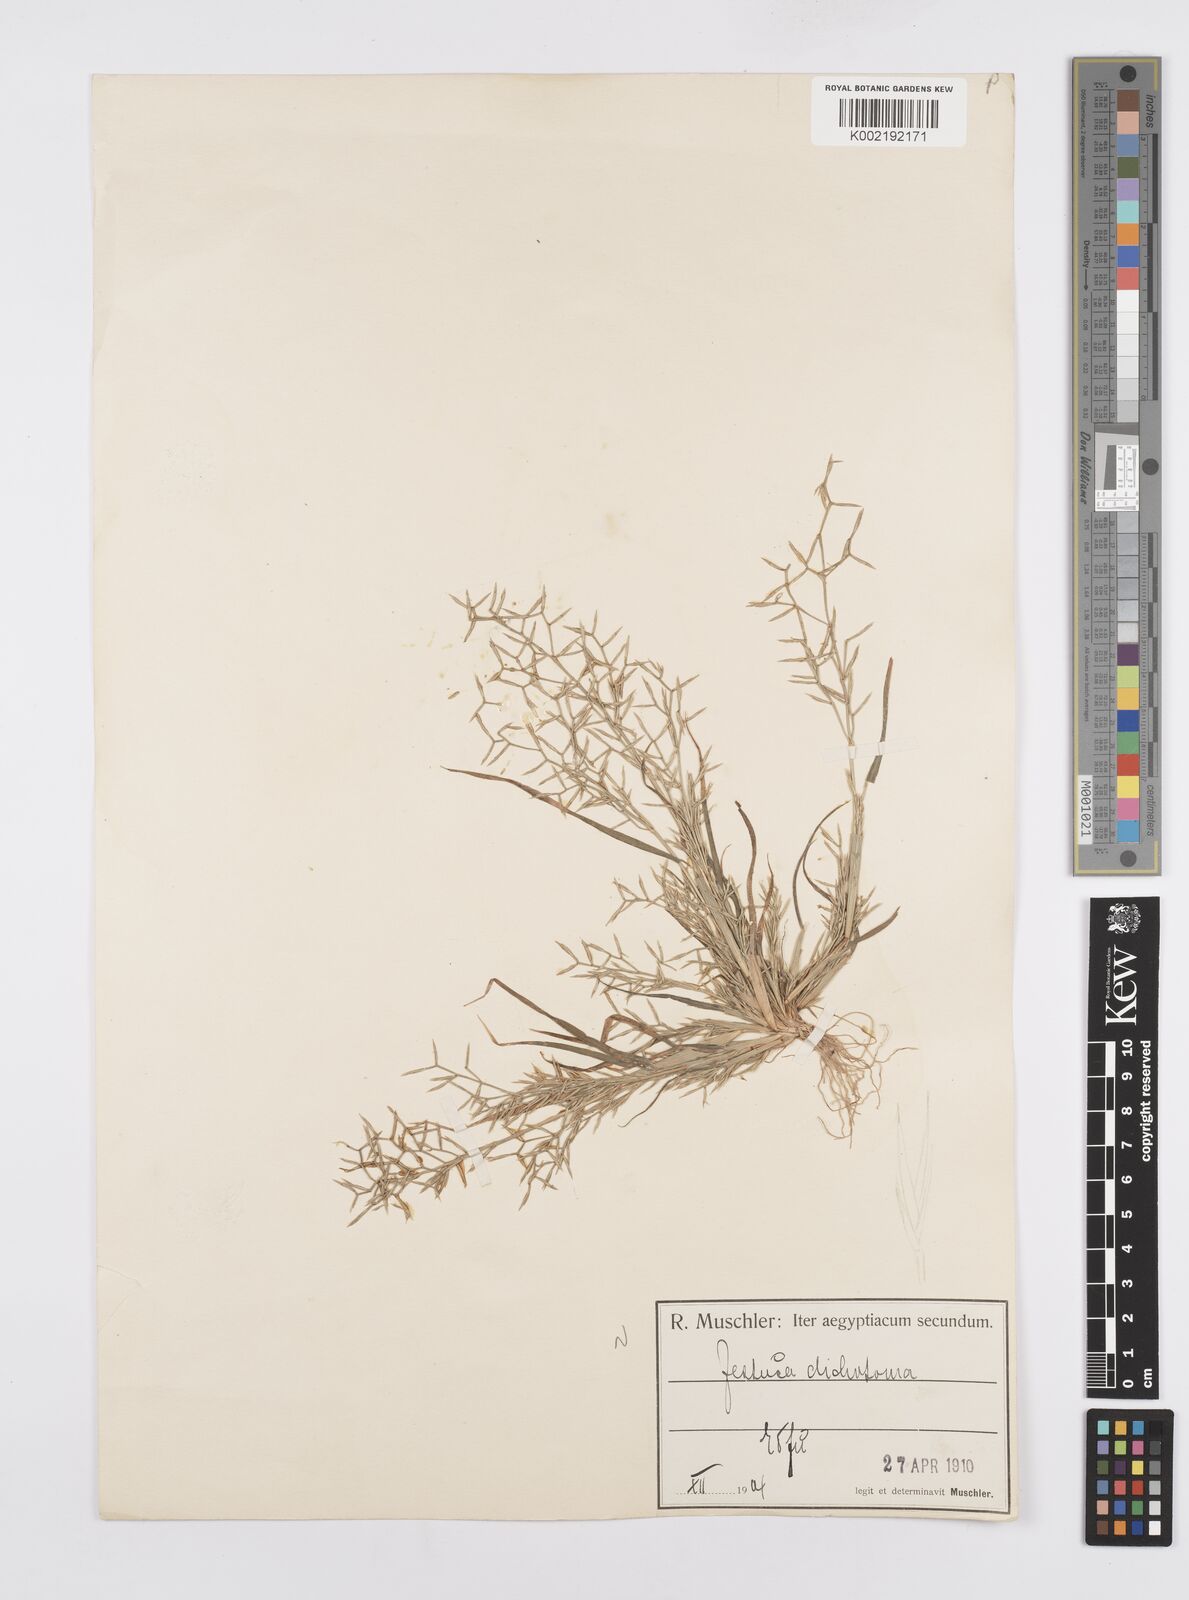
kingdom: Plantae
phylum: Tracheophyta
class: Liliopsida
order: Poales
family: Poaceae
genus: Cutandia
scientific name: Cutandia dichotoma
